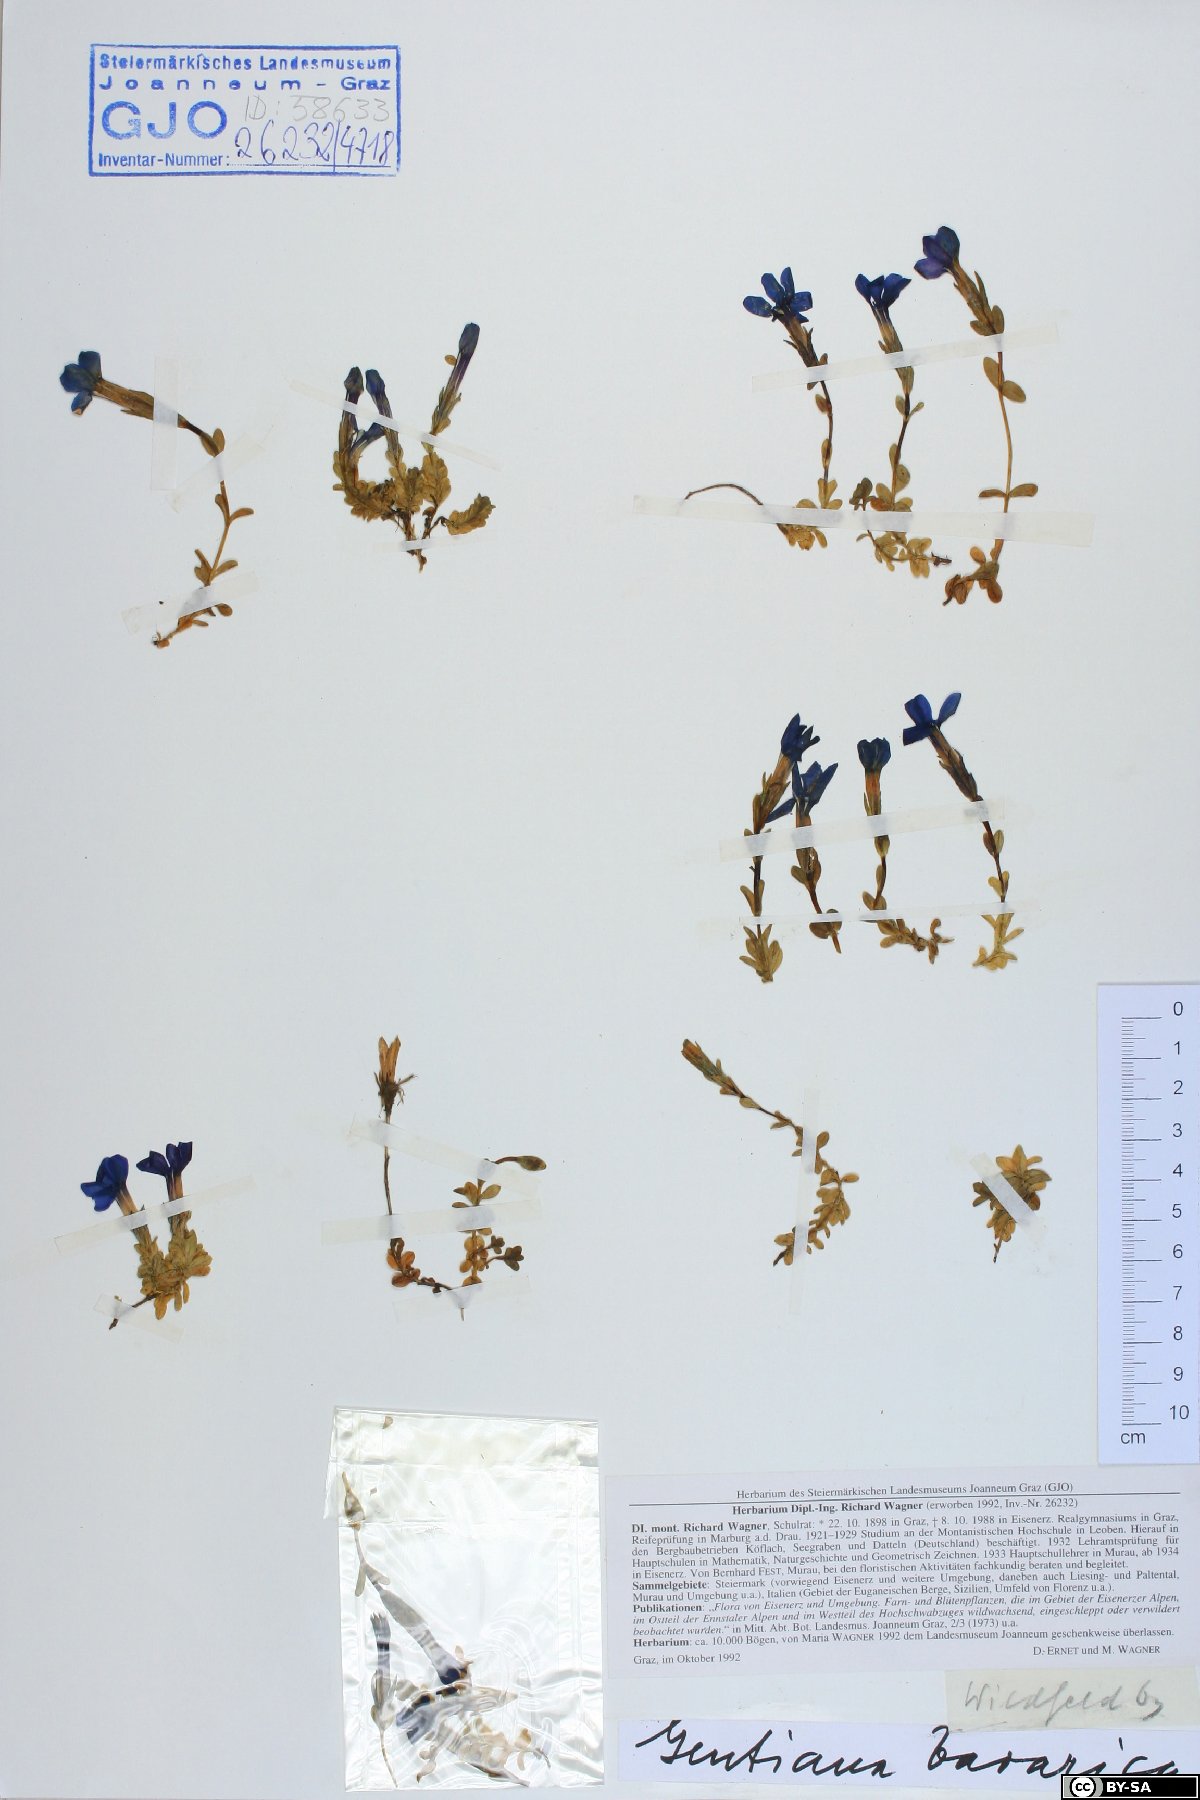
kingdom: Plantae
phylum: Tracheophyta
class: Magnoliopsida
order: Gentianales
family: Gentianaceae
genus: Gentiana
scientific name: Gentiana bavarica
